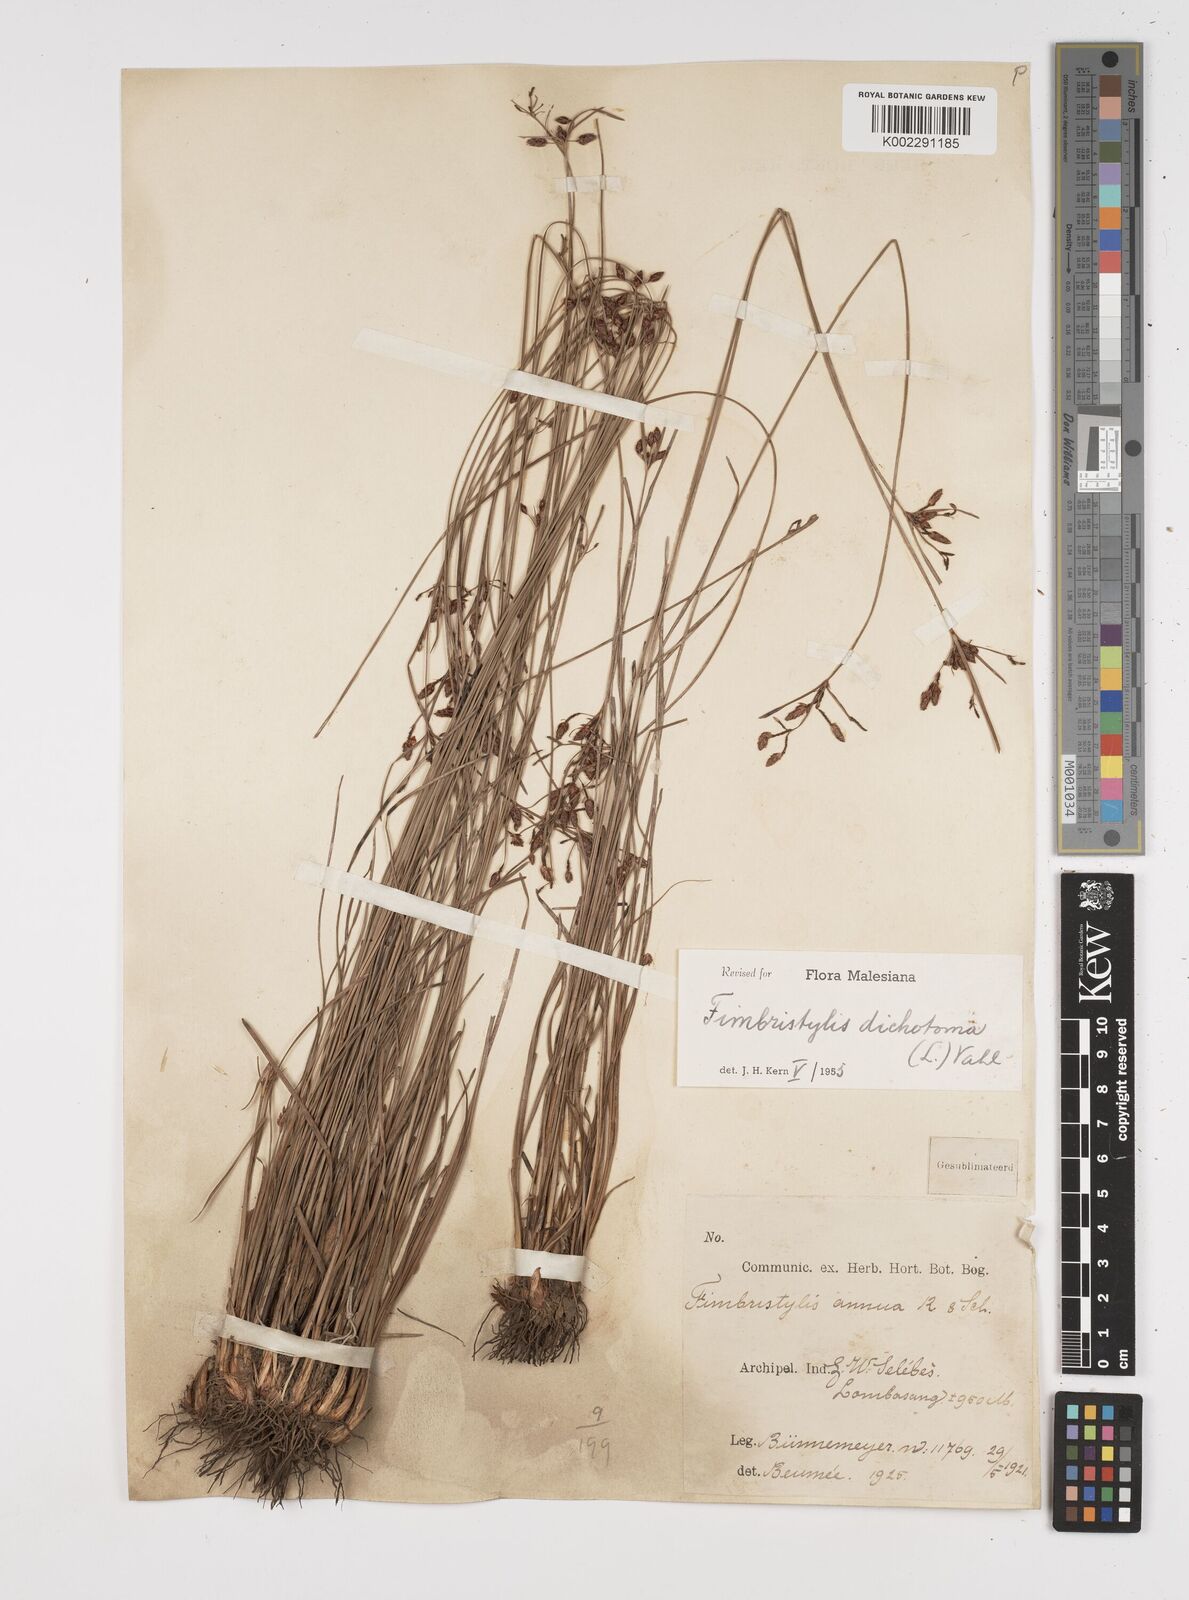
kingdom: Plantae
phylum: Tracheophyta
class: Liliopsida
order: Poales
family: Cyperaceae
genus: Fimbristylis
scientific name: Fimbristylis dichotoma
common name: Forked fimbry
